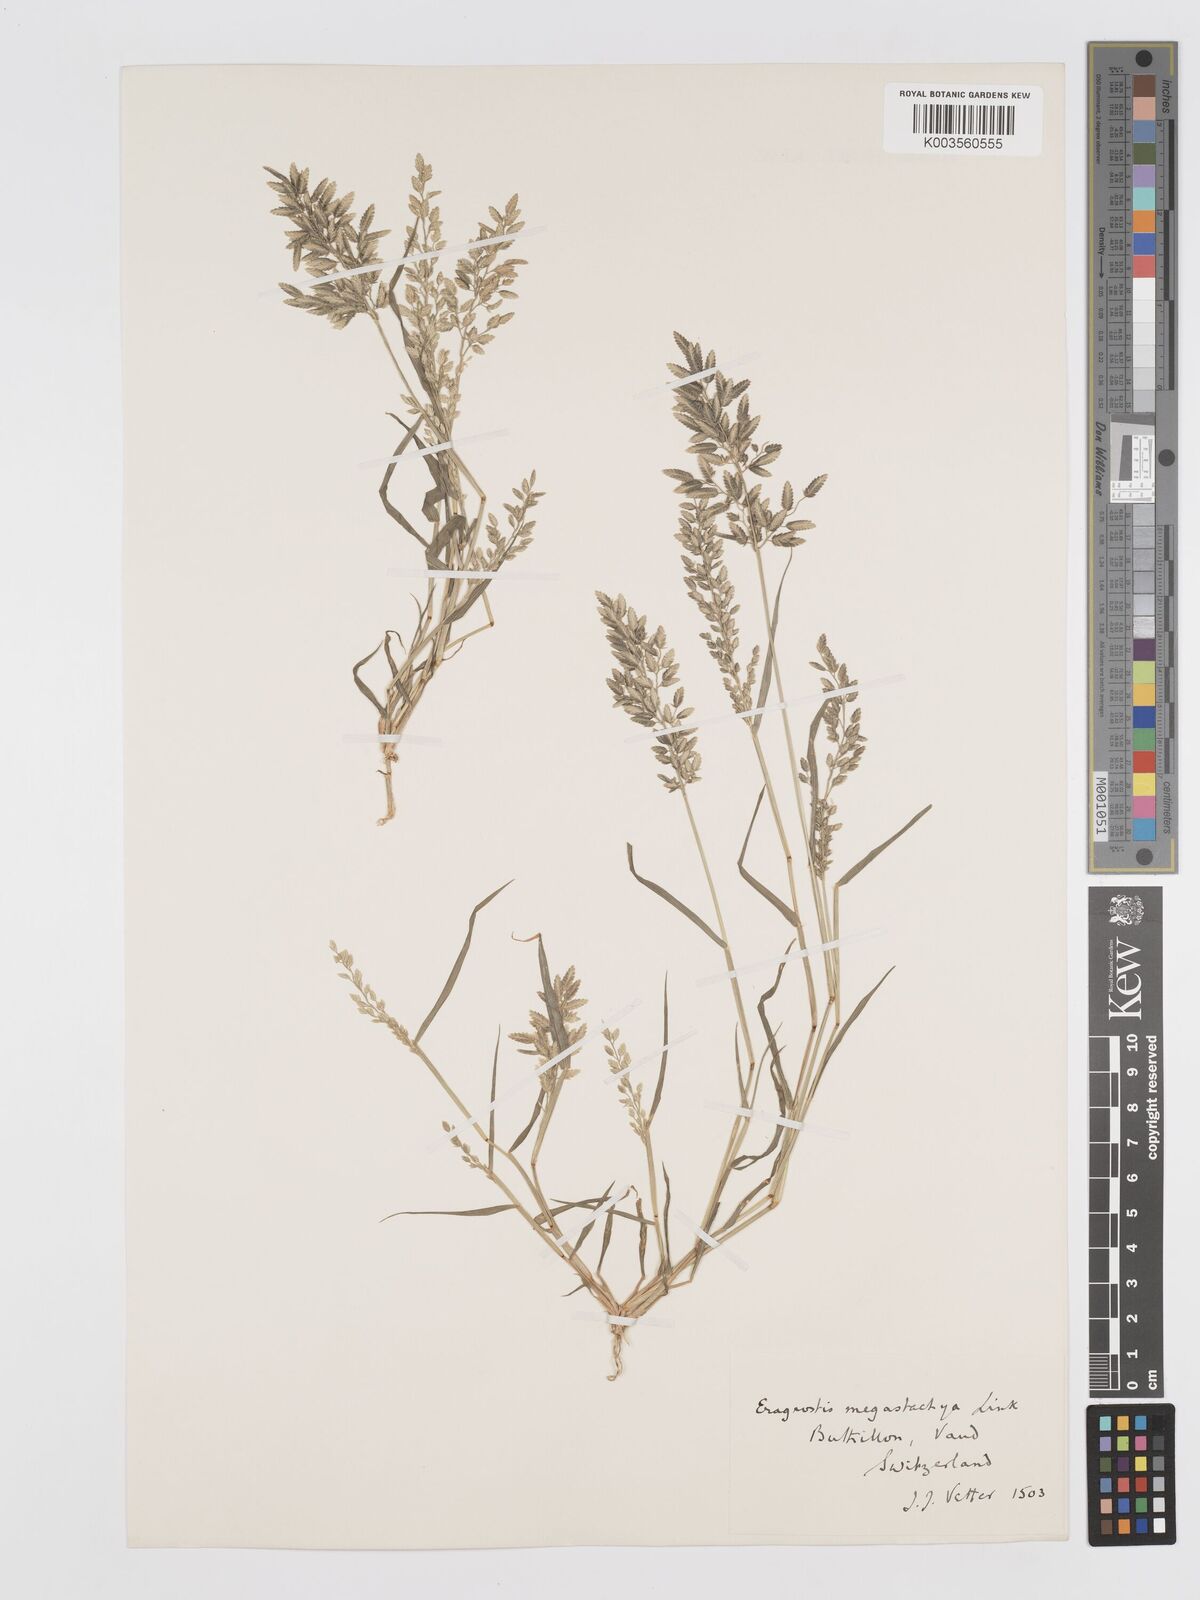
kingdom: Plantae
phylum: Tracheophyta
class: Liliopsida
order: Poales
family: Poaceae
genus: Eragrostis
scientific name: Eragrostis cilianensis
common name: Stinkgrass
